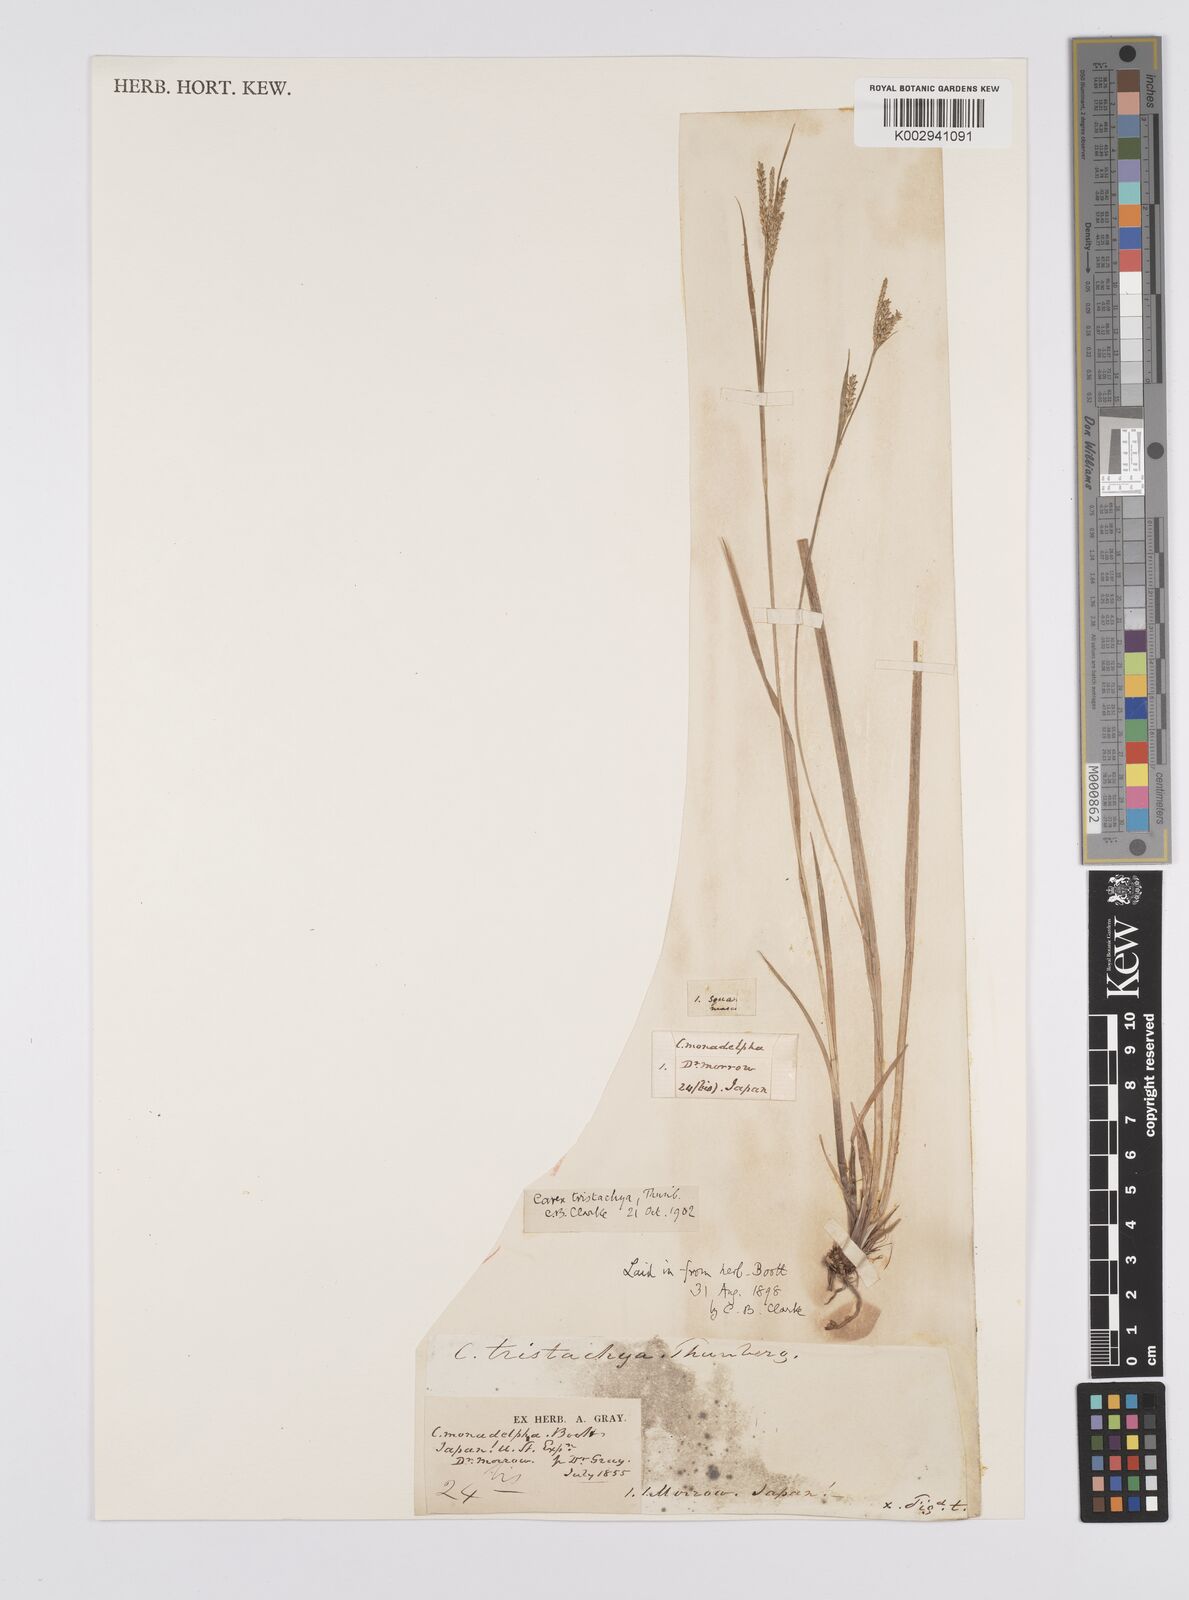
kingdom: Plantae
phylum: Tracheophyta
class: Liliopsida
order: Poales
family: Cyperaceae
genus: Carex
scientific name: Carex tristachya
